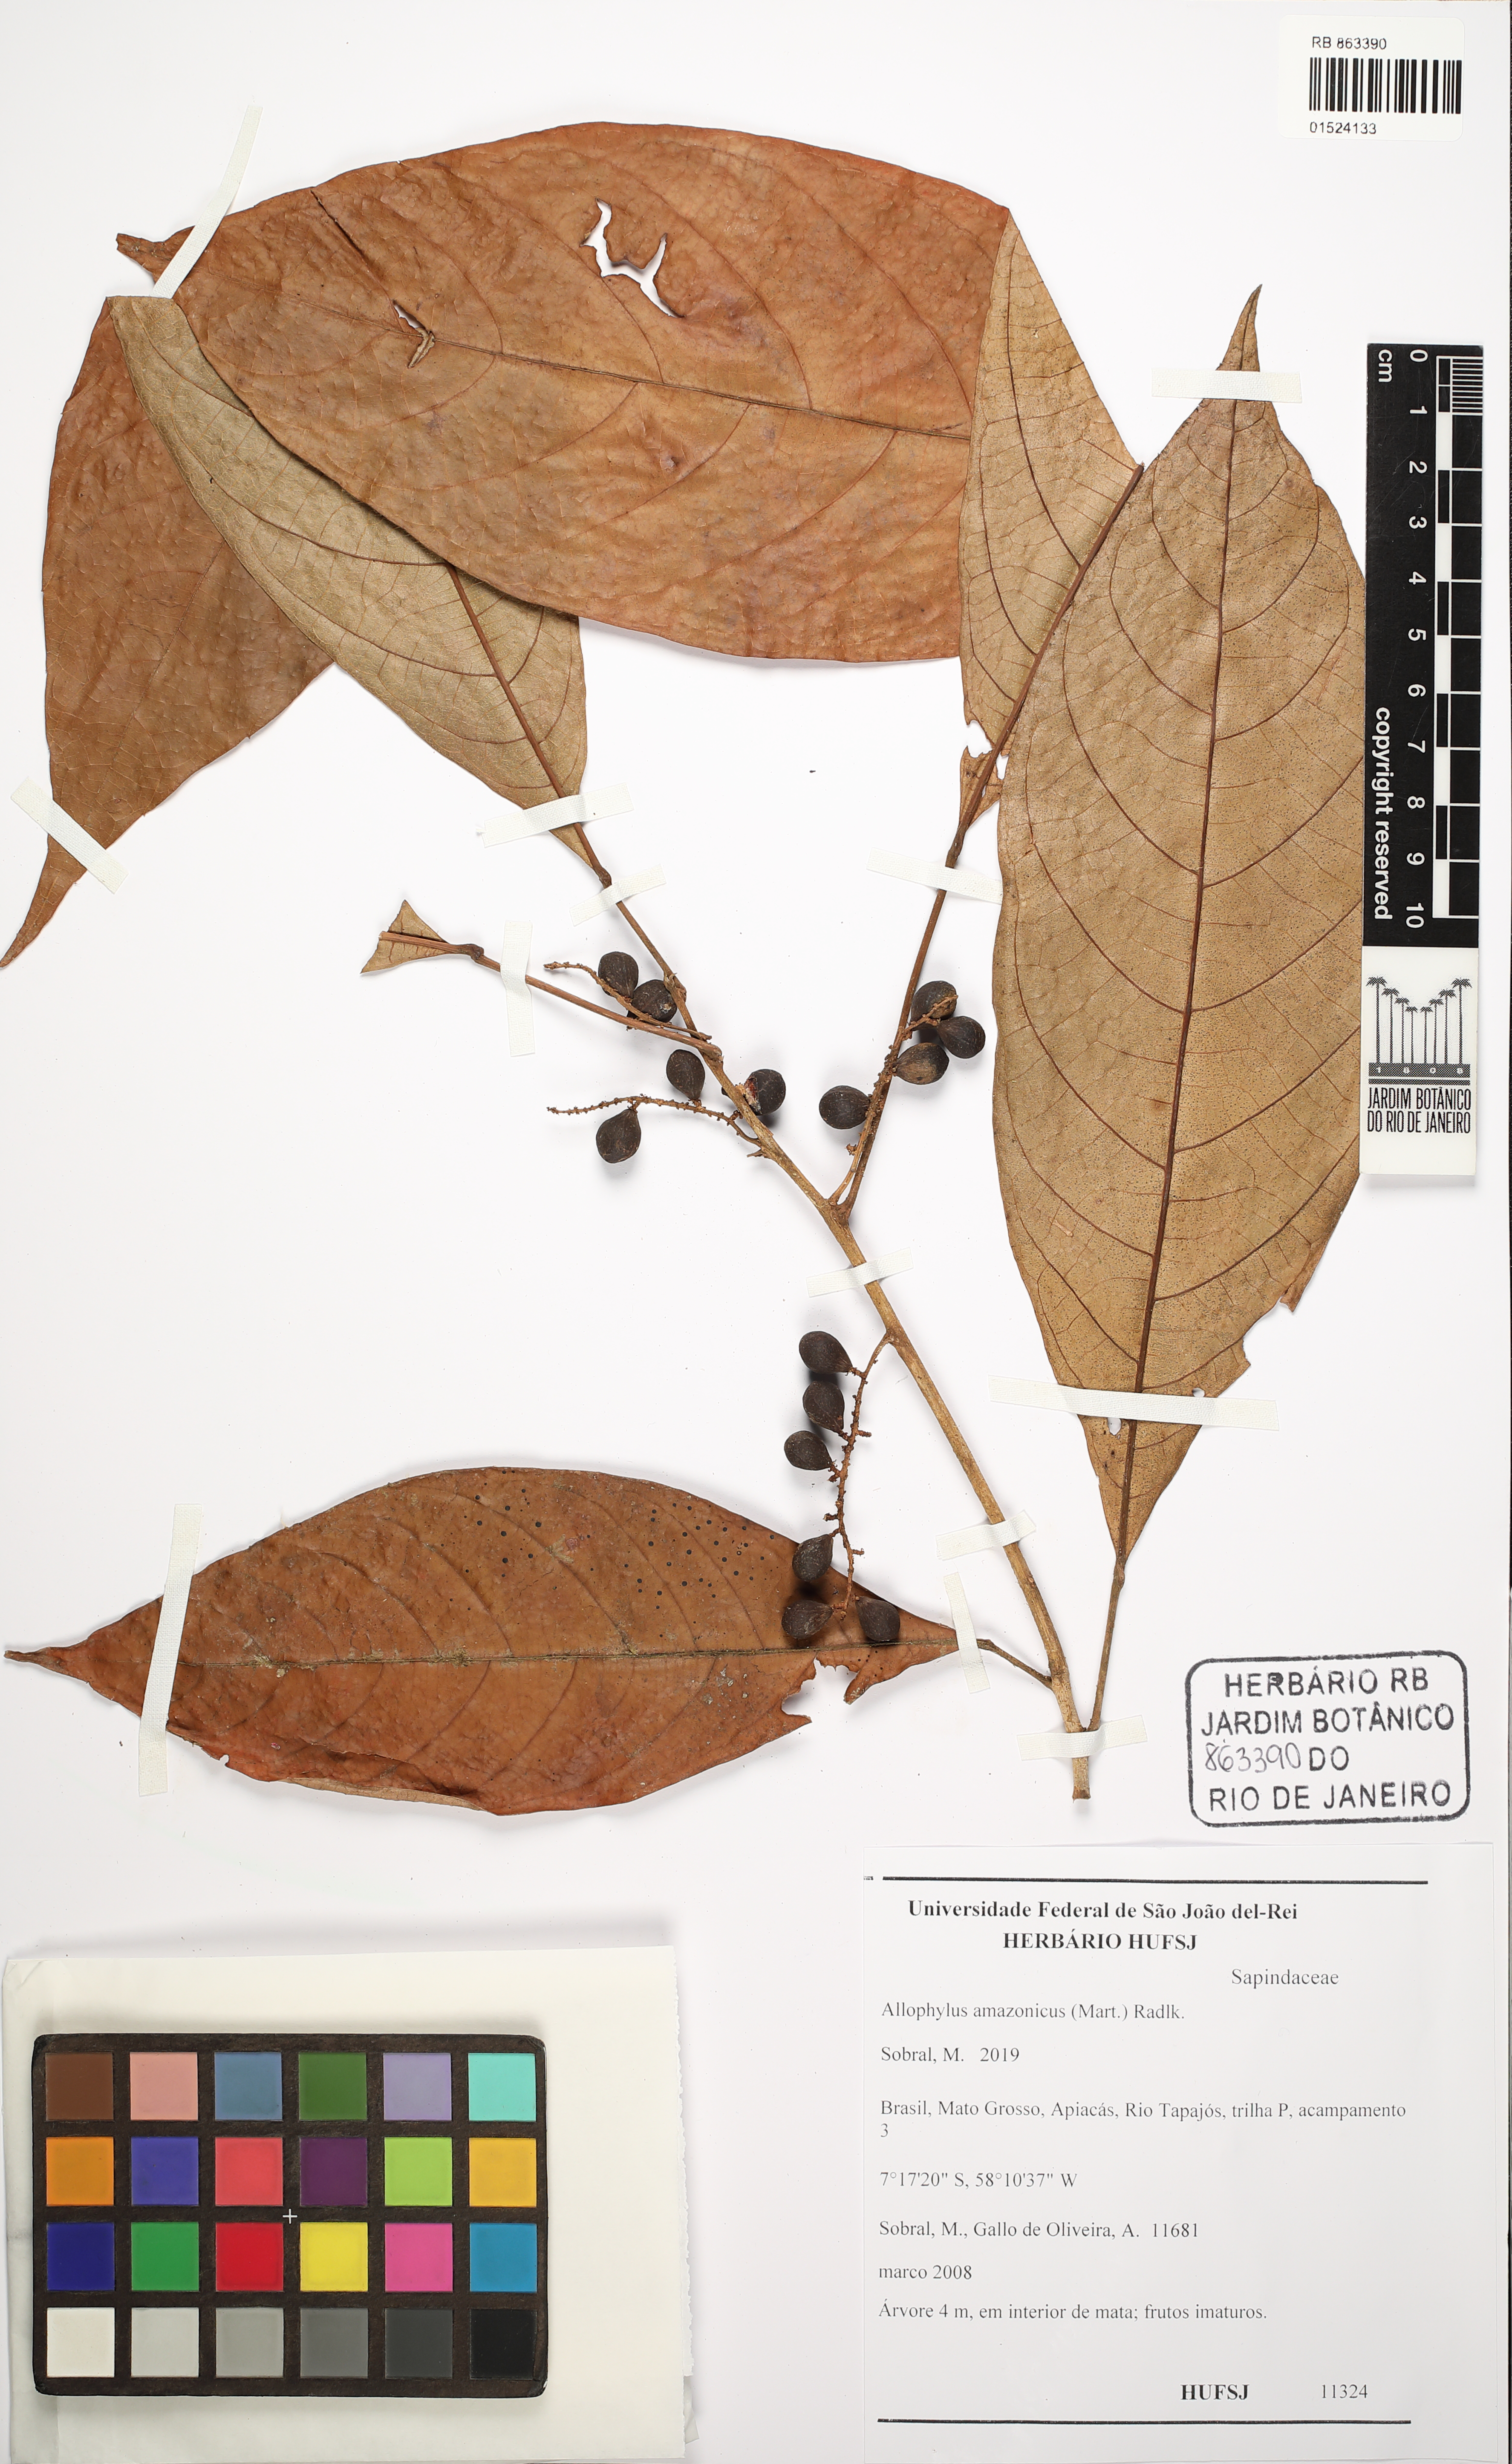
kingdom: Plantae
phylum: Tracheophyta
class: Magnoliopsida
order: Sapindales
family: Sapindaceae
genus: Allophylus
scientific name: Allophylus amazonicus
